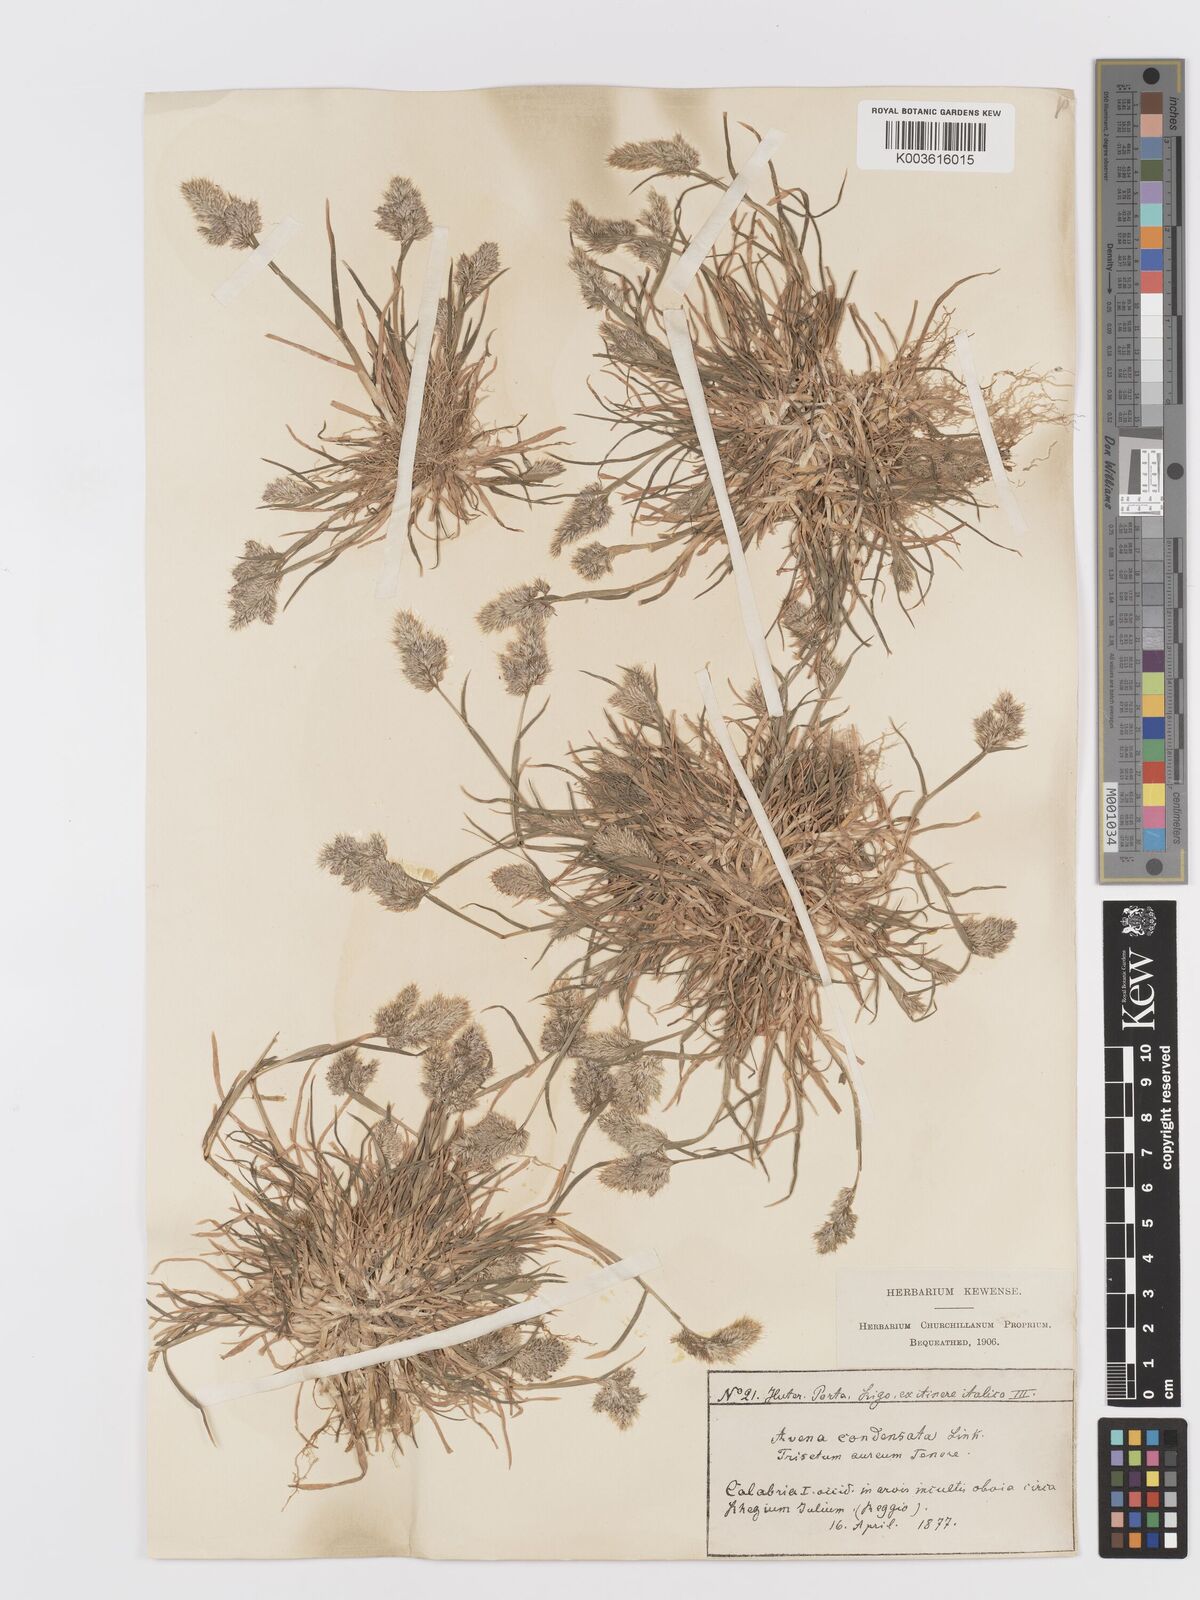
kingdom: Plantae
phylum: Tracheophyta
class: Liliopsida
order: Poales
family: Poaceae
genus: Trisetaria
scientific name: Trisetaria aurea
